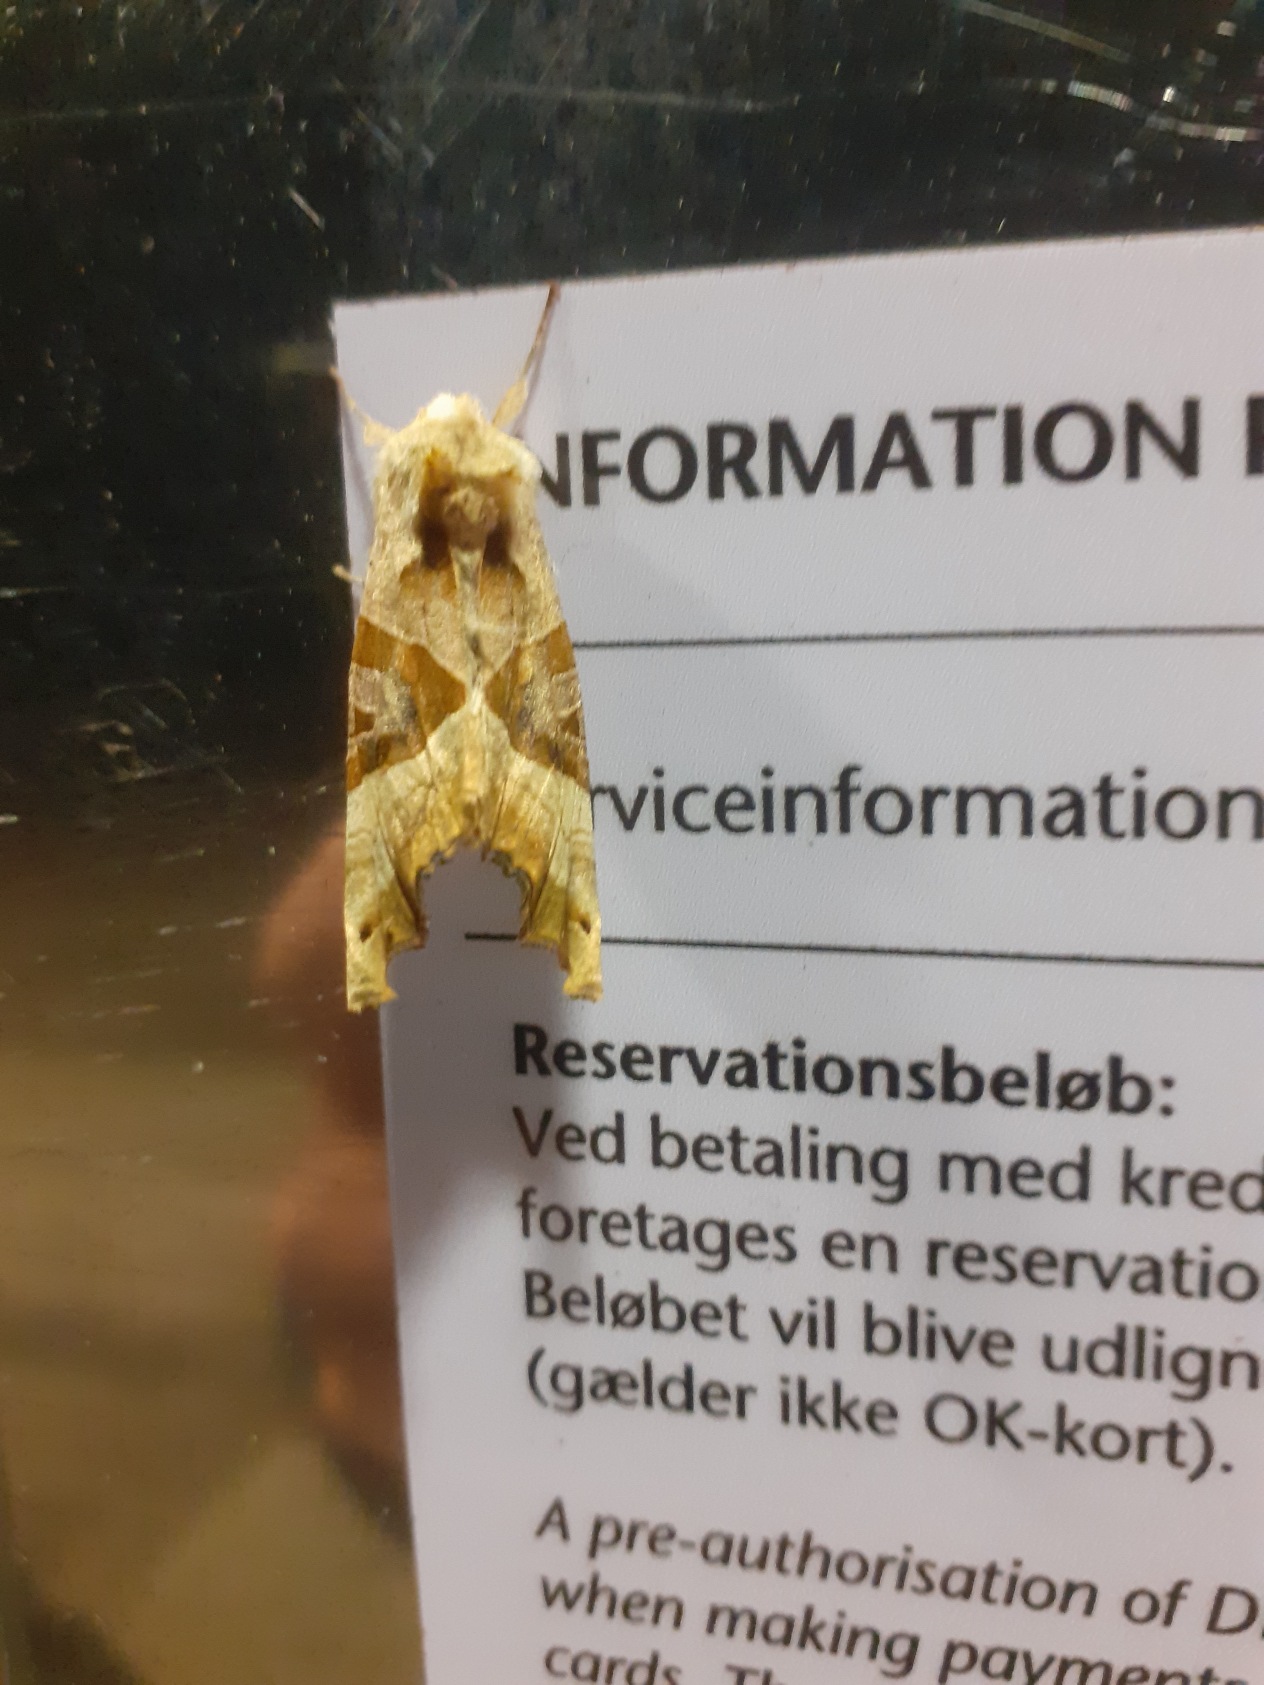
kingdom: Animalia
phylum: Arthropoda
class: Insecta
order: Lepidoptera
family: Noctuidae
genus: Phlogophora
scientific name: Phlogophora meticulosa
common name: Agatugle
